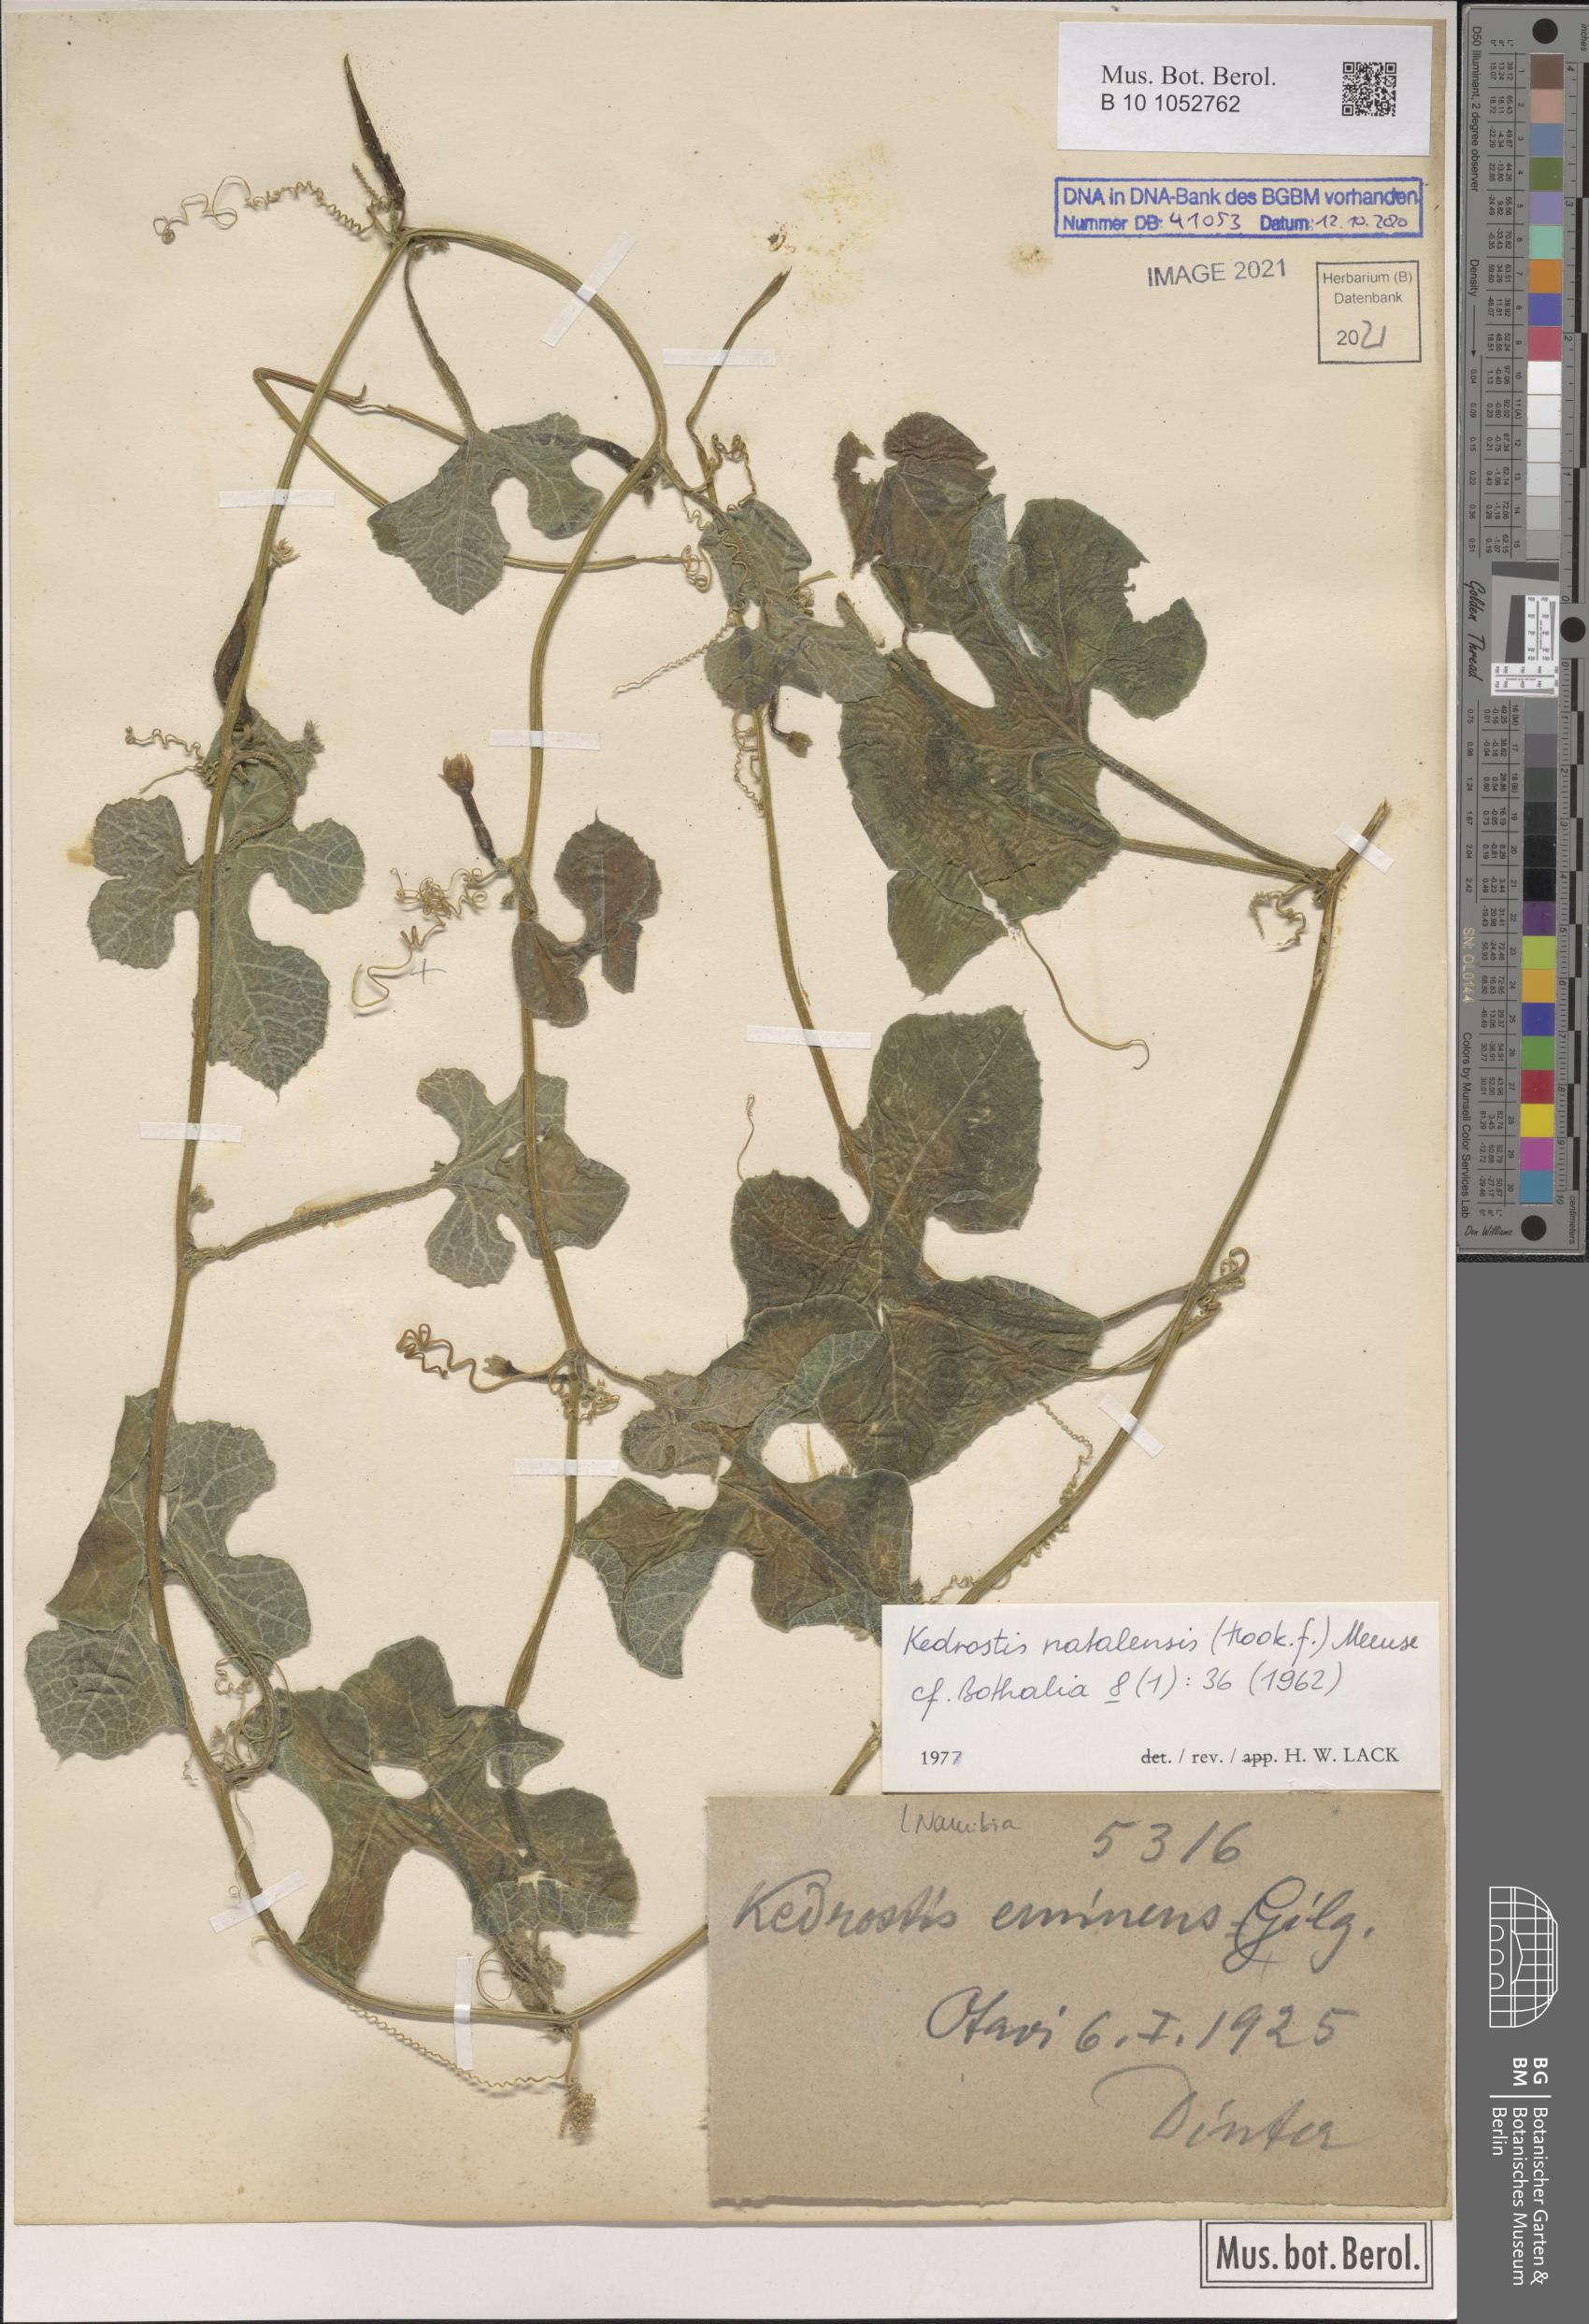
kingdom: Plantae
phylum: Tracheophyta
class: Magnoliopsida
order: Cucurbitales
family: Cucurbitaceae
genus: Kedrostis
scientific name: Kedrostis hirtella
